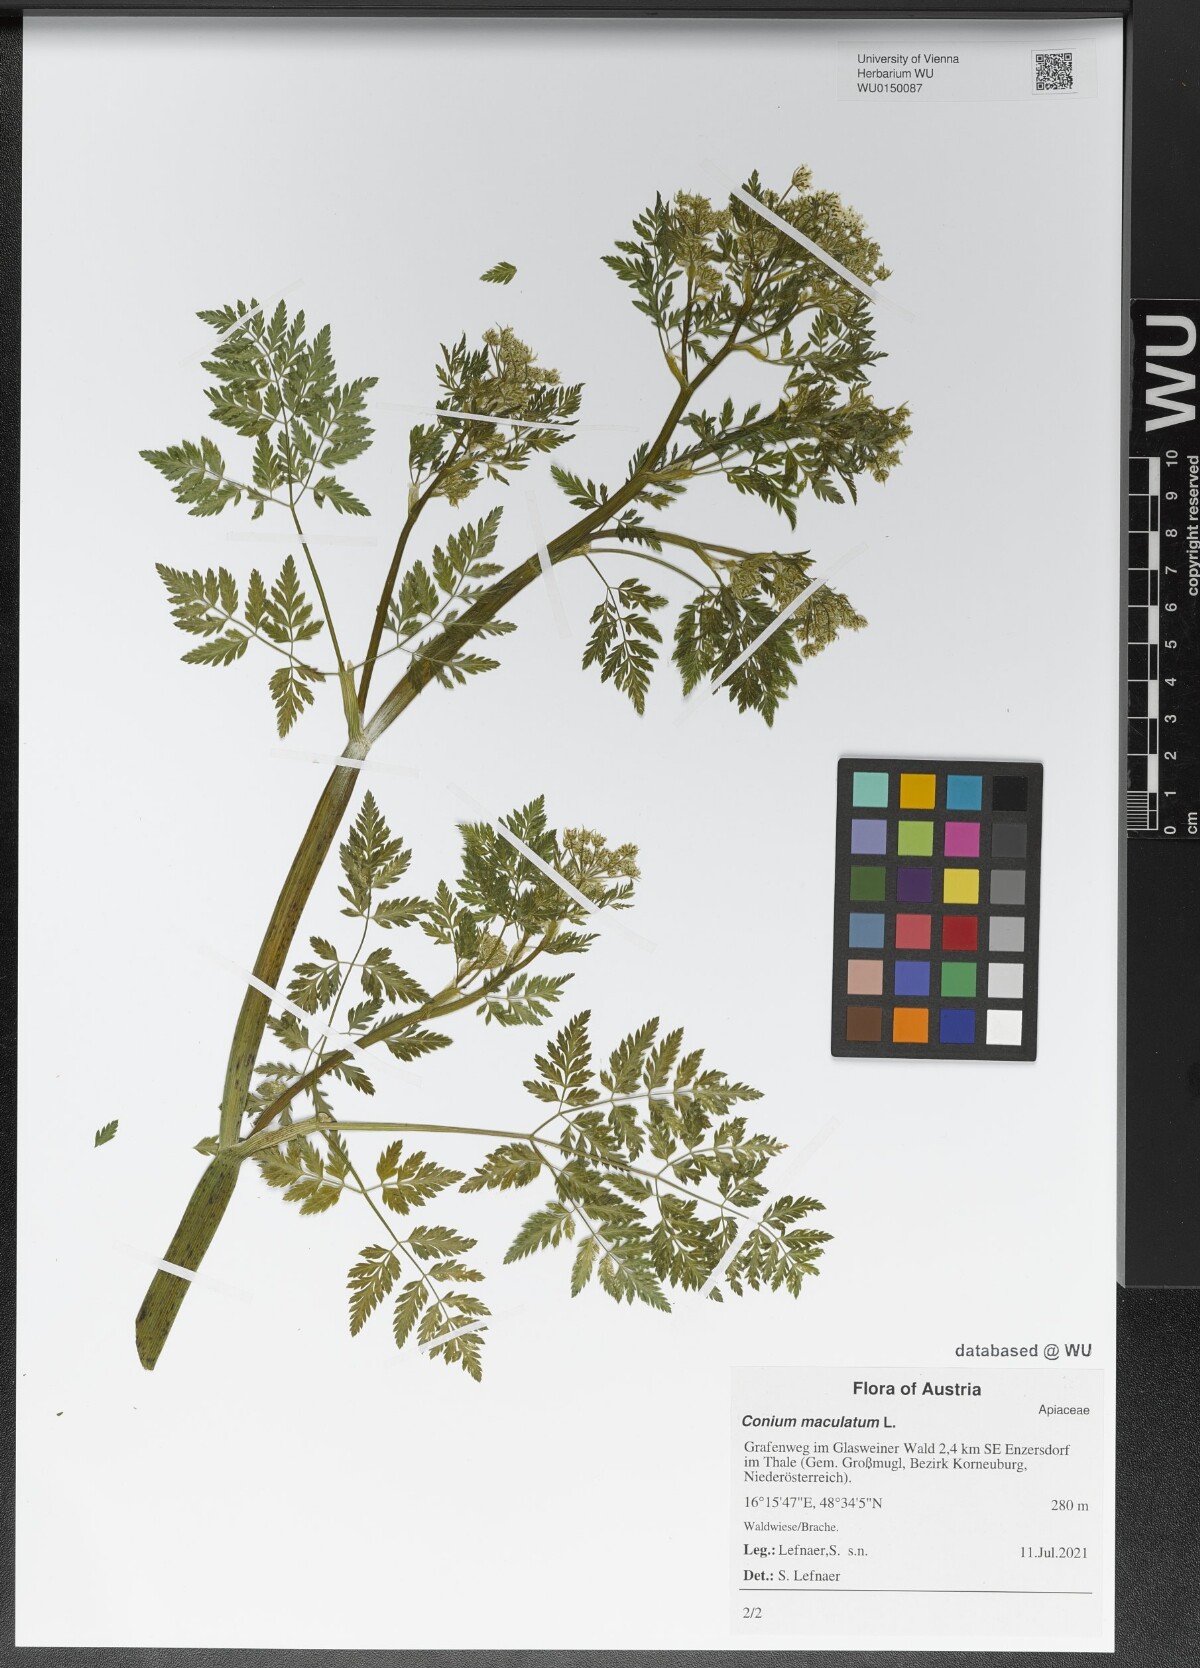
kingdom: Plantae
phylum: Tracheophyta
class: Magnoliopsida
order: Apiales
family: Apiaceae
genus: Conium
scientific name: Conium maculatum
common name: Hemlock
